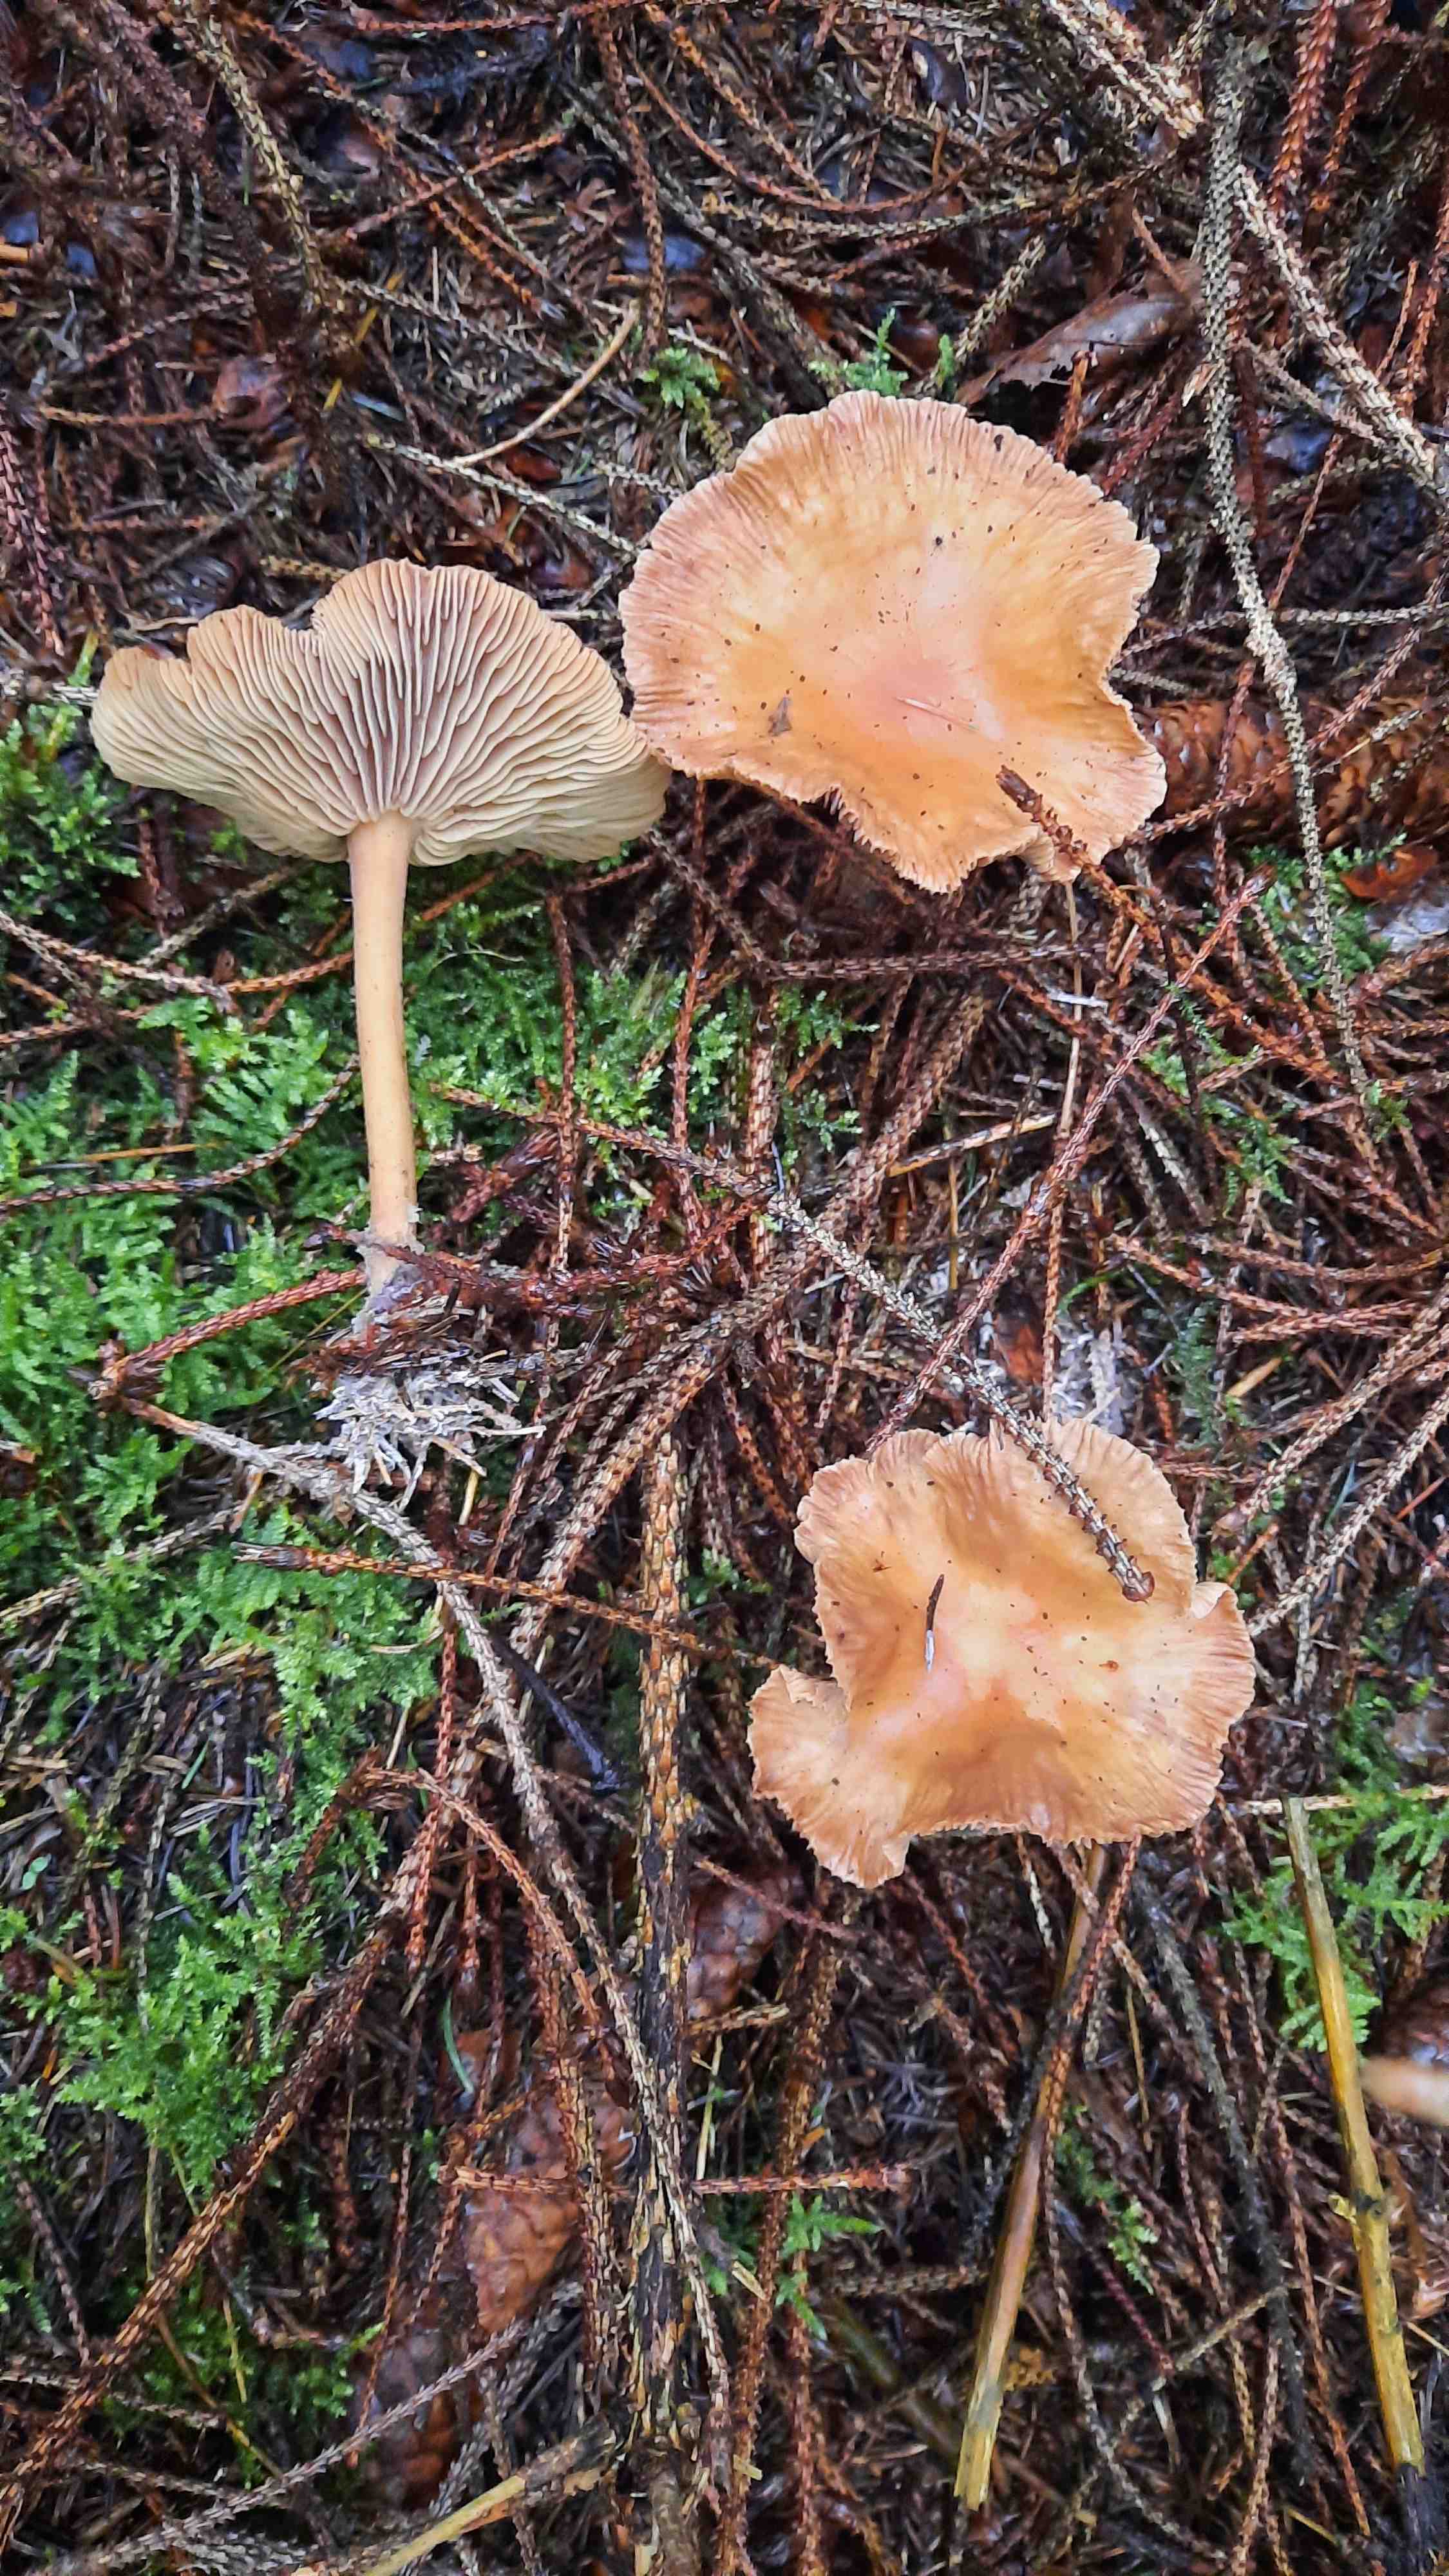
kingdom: Fungi
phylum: Basidiomycota
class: Agaricomycetes
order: Agaricales
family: Omphalotaceae
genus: Collybiopsis
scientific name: Collybiopsis peronata
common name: bestøvlet fladhat
